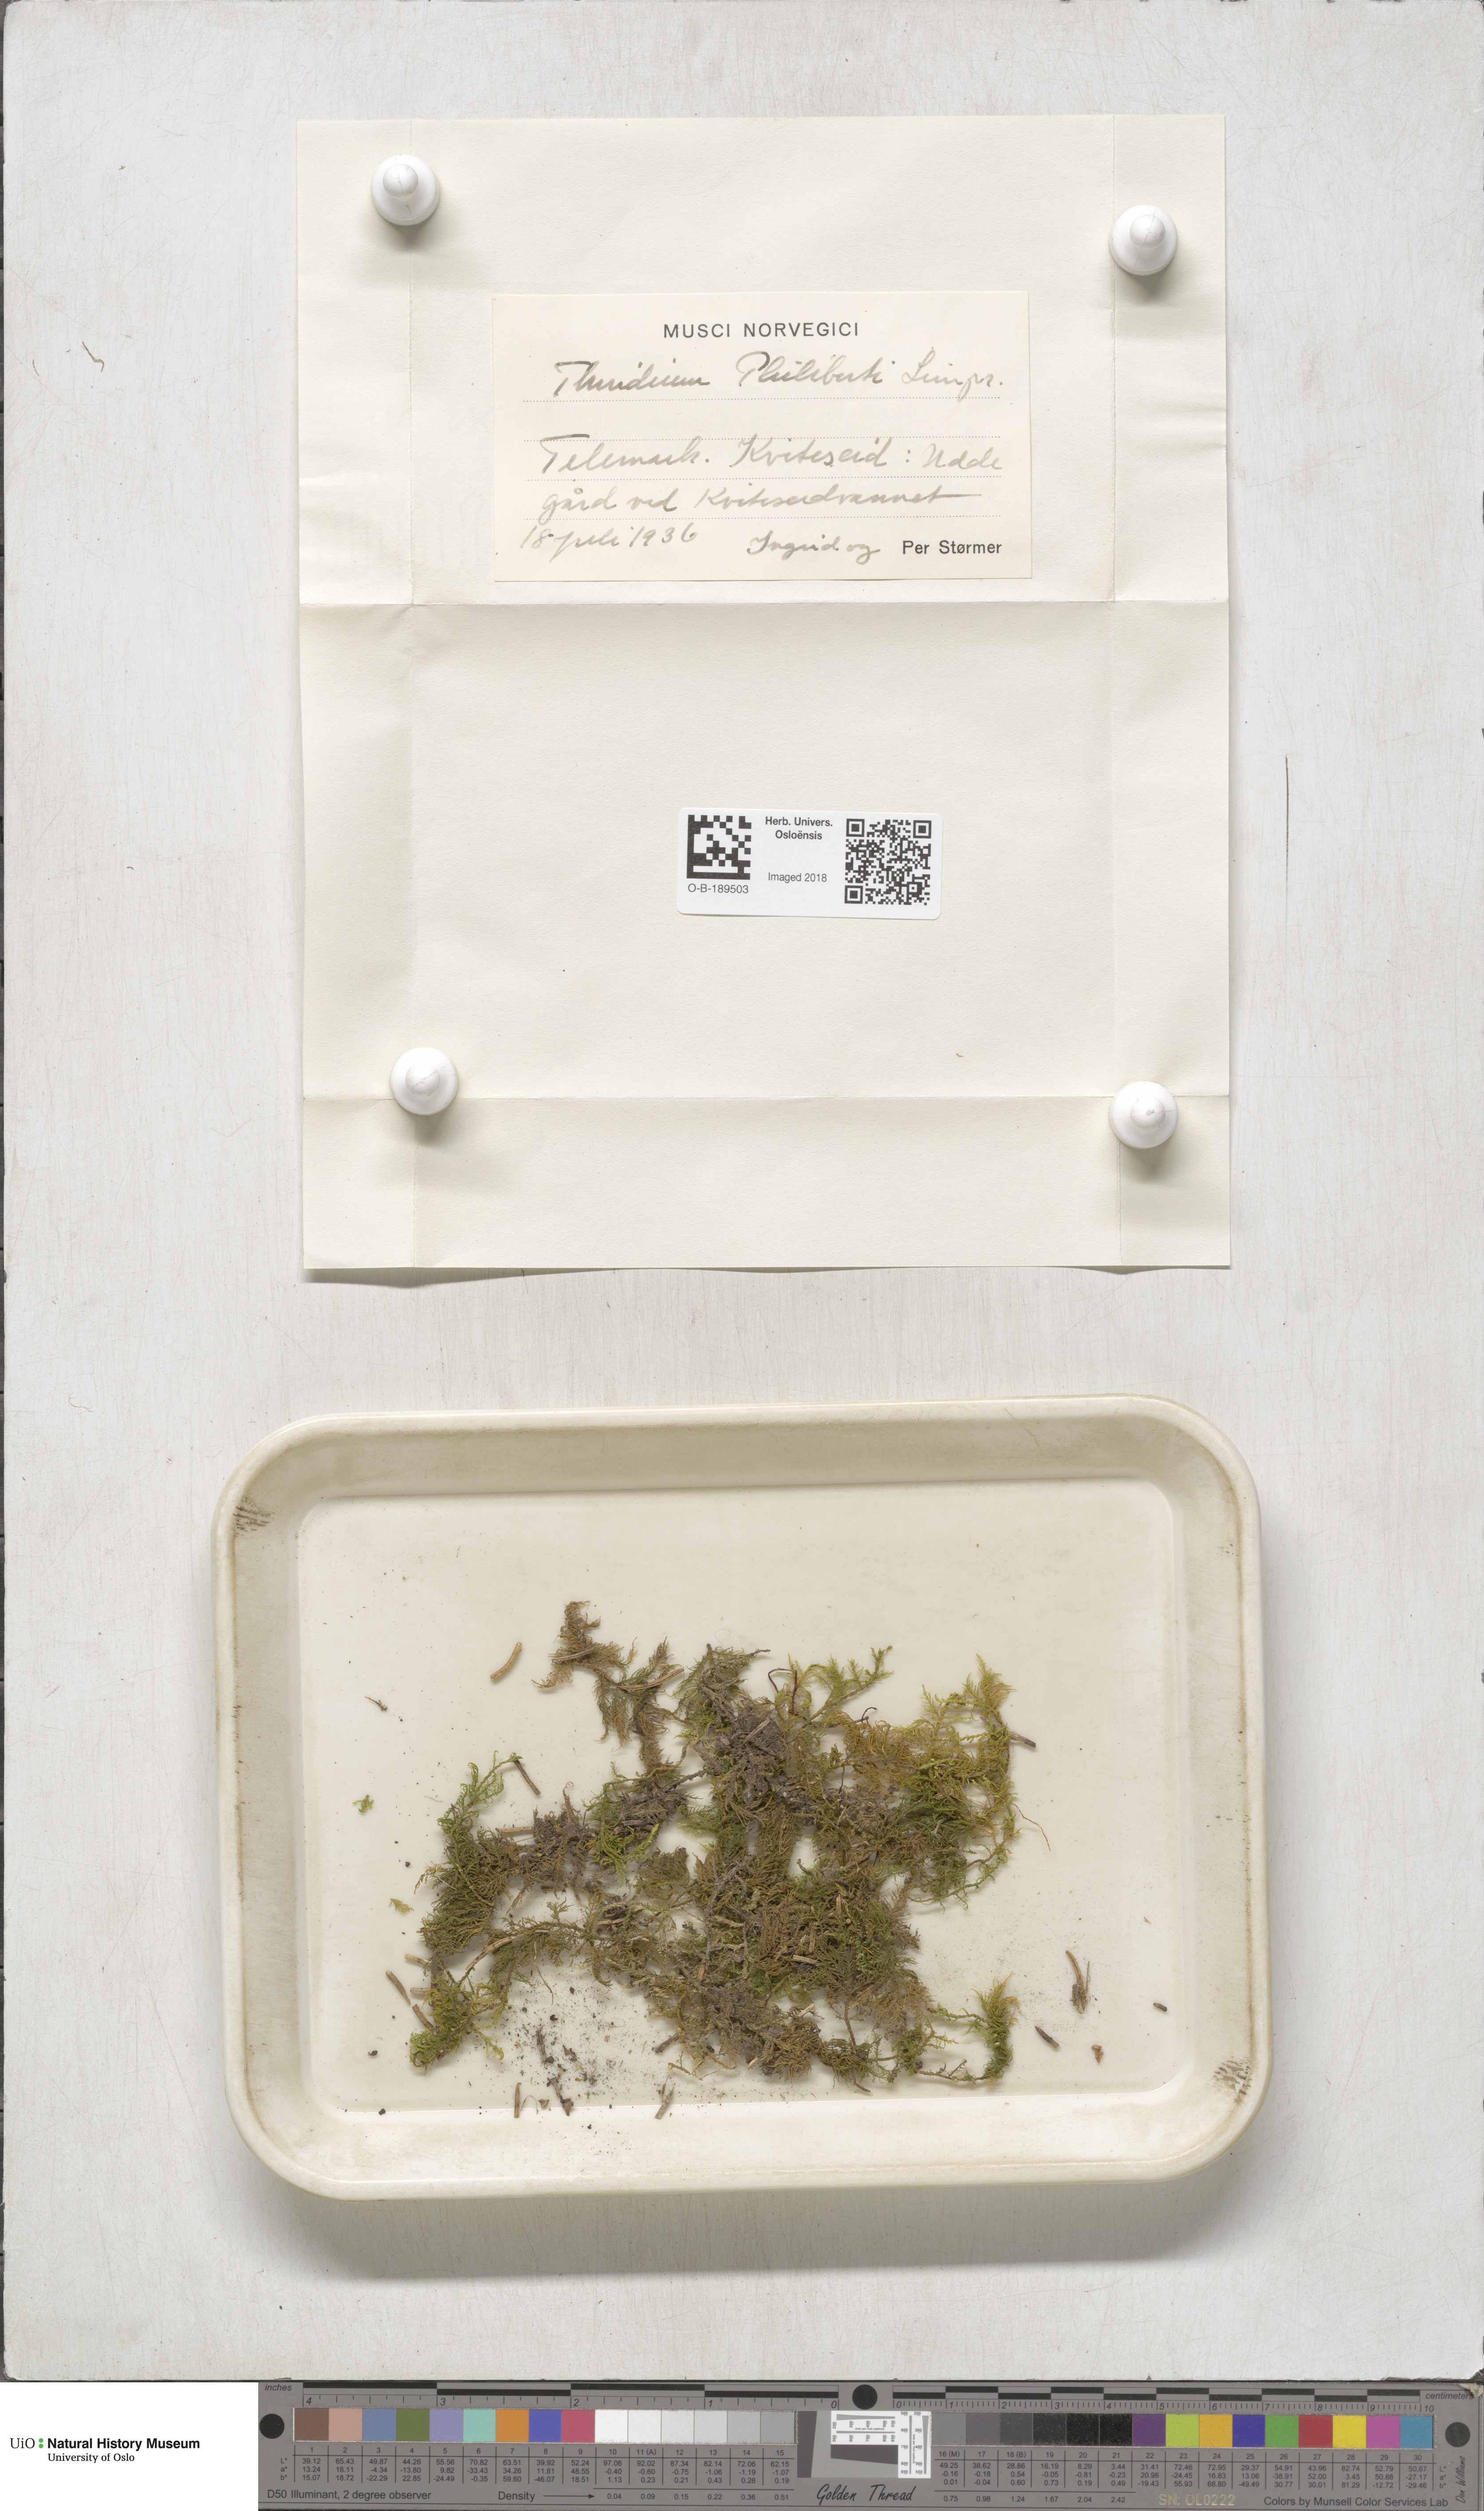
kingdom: Plantae
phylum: Bryophyta
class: Bryopsida
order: Hypnales
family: Thuidiaceae
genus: Thuidium
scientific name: Thuidium assimile
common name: Philibert's fern moss
